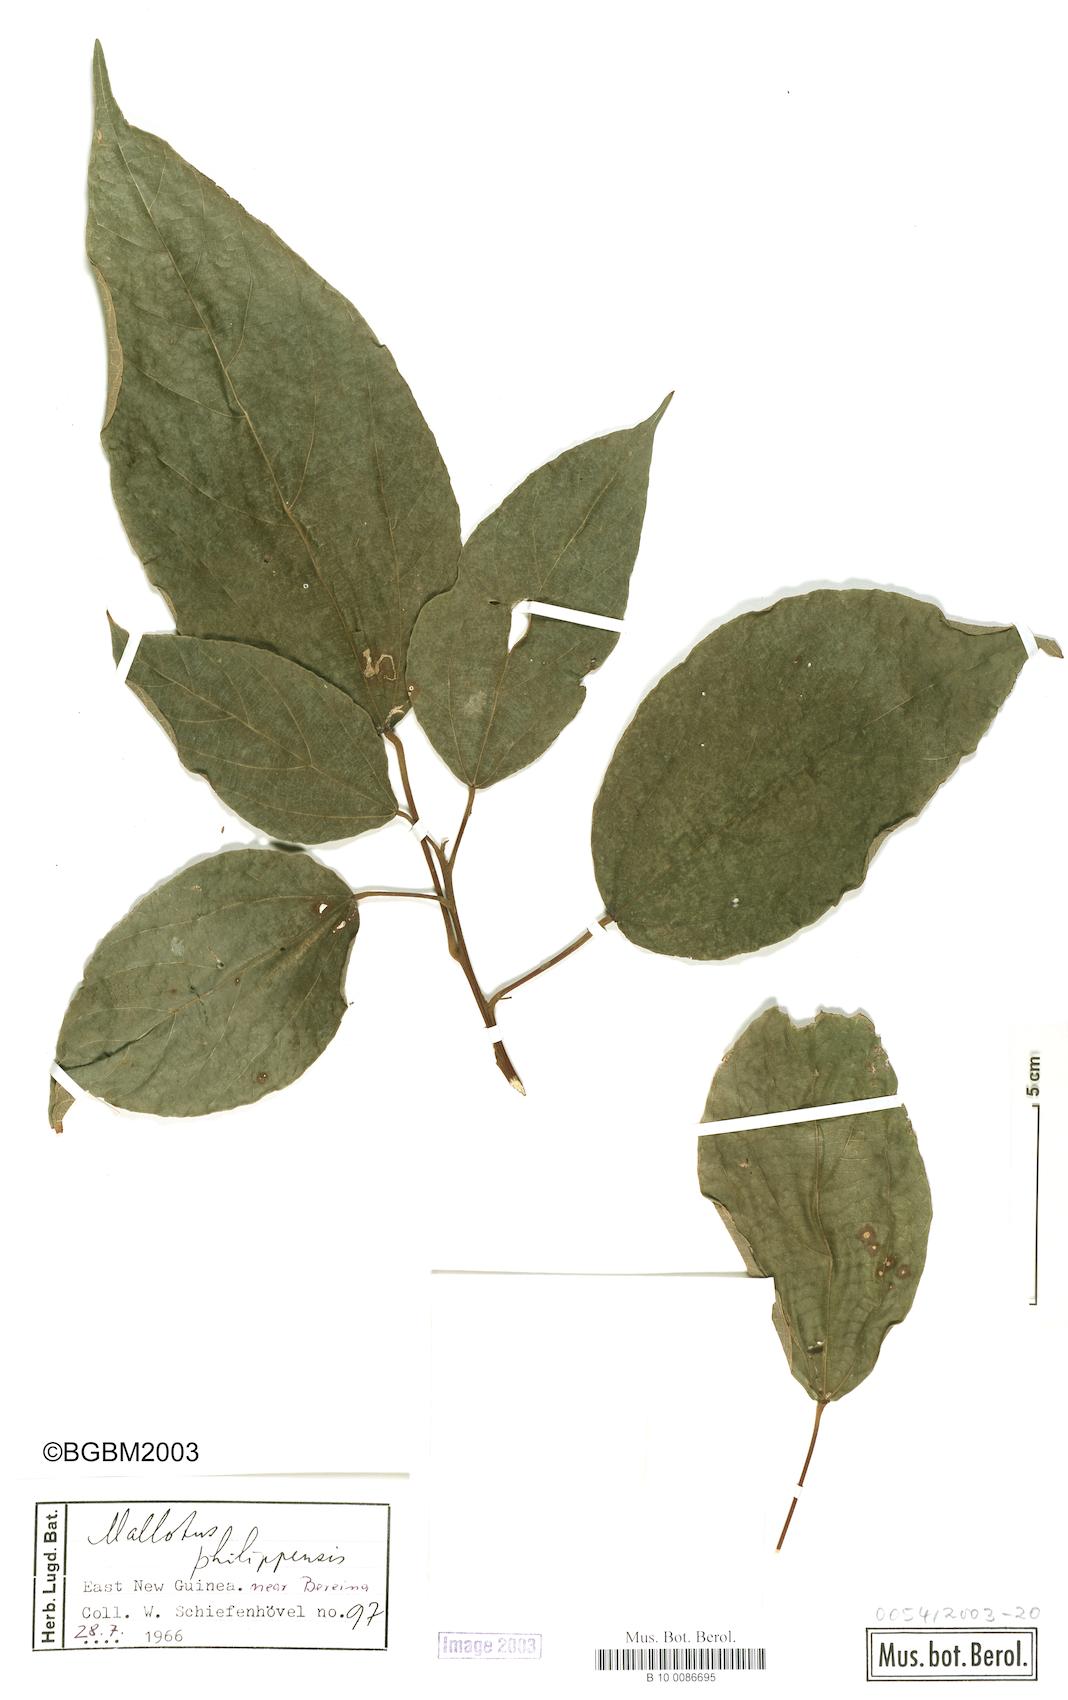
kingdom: Plantae
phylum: Tracheophyta
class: Magnoliopsida
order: Malpighiales
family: Euphorbiaceae
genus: Mallotus
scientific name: Mallotus philippensis
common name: Kamala tree
